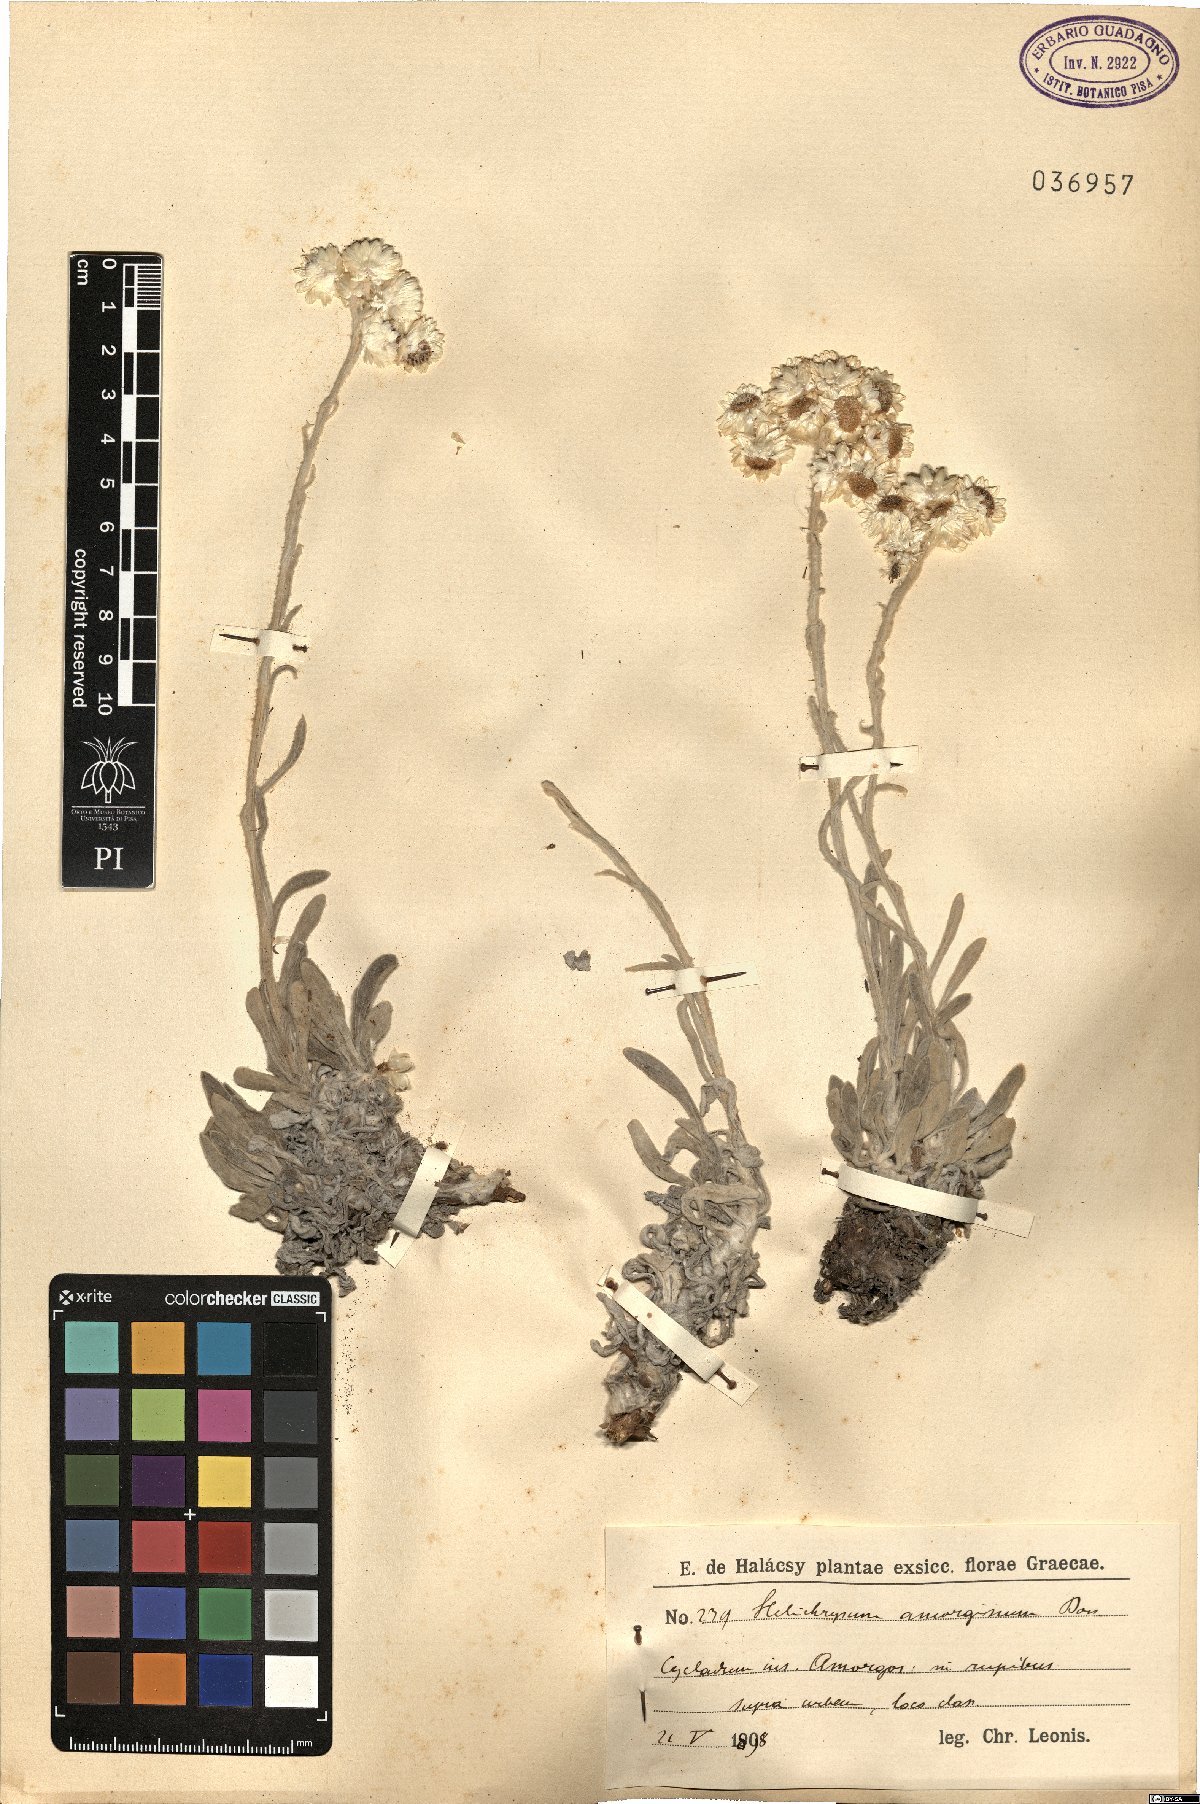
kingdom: Plantae
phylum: Tracheophyta
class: Magnoliopsida
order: Asterales
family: Asteraceae
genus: Helichrysum
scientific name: Helichrysum amorginum
